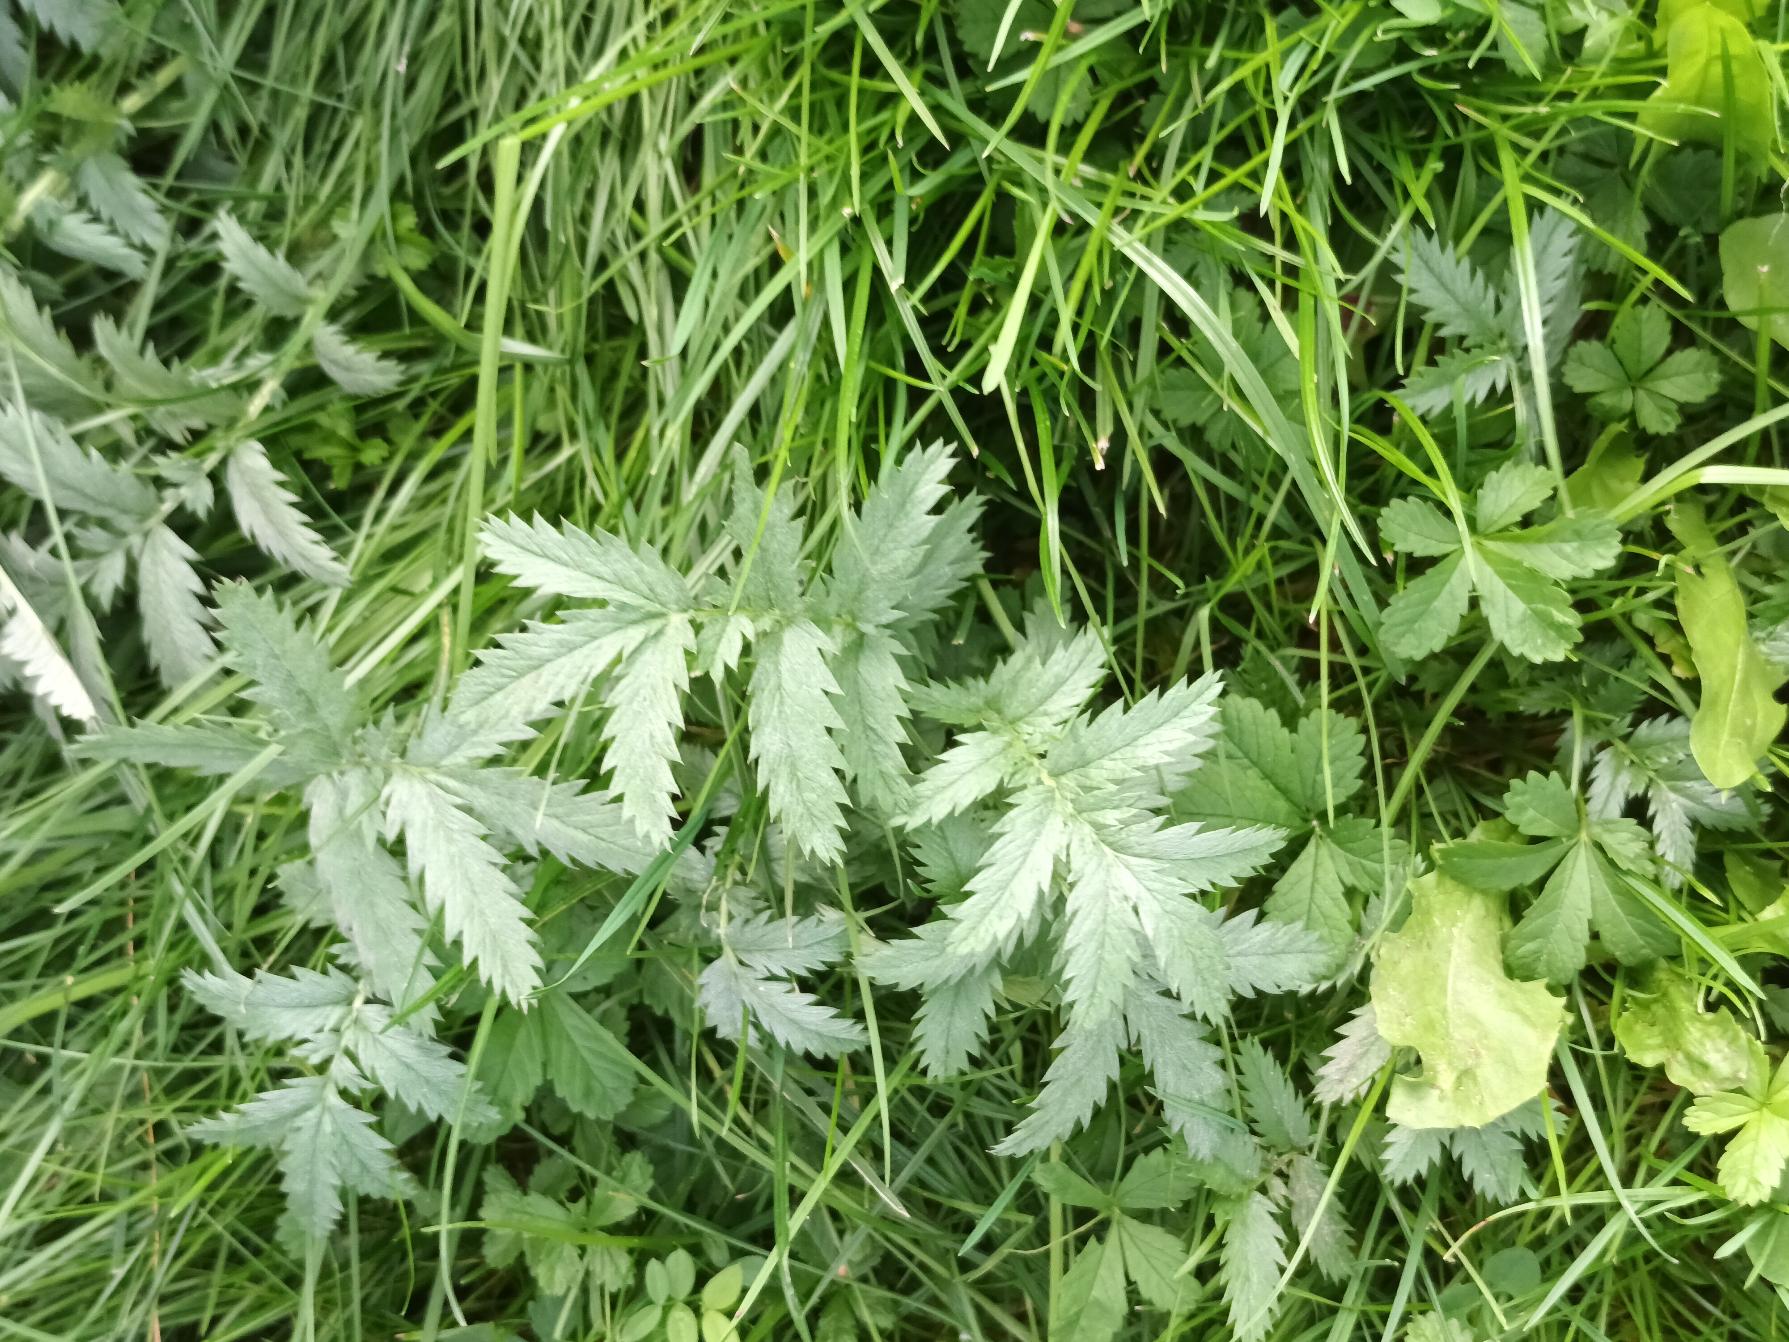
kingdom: Plantae
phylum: Tracheophyta
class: Magnoliopsida
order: Rosales
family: Rosaceae
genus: Argentina
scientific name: Argentina anserina
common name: Gåsepotentil
